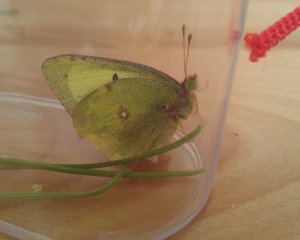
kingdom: Animalia
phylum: Arthropoda
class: Insecta
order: Lepidoptera
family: Pieridae
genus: Colias
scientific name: Colias philodice
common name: Clouded Sulphur
